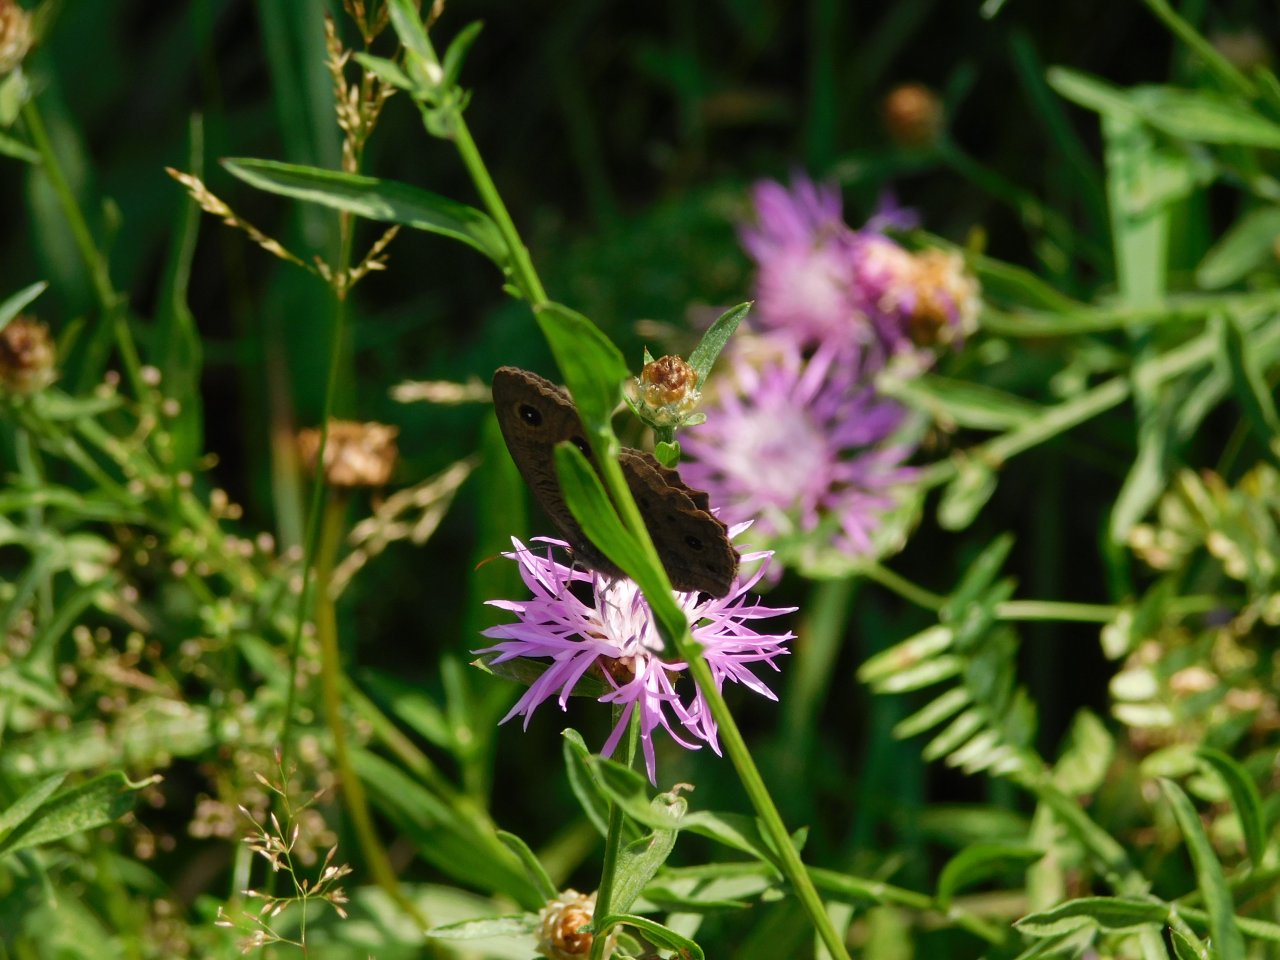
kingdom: Animalia
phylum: Arthropoda
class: Insecta
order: Lepidoptera
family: Nymphalidae
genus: Cercyonis
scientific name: Cercyonis pegala
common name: Common Wood-Nymph
